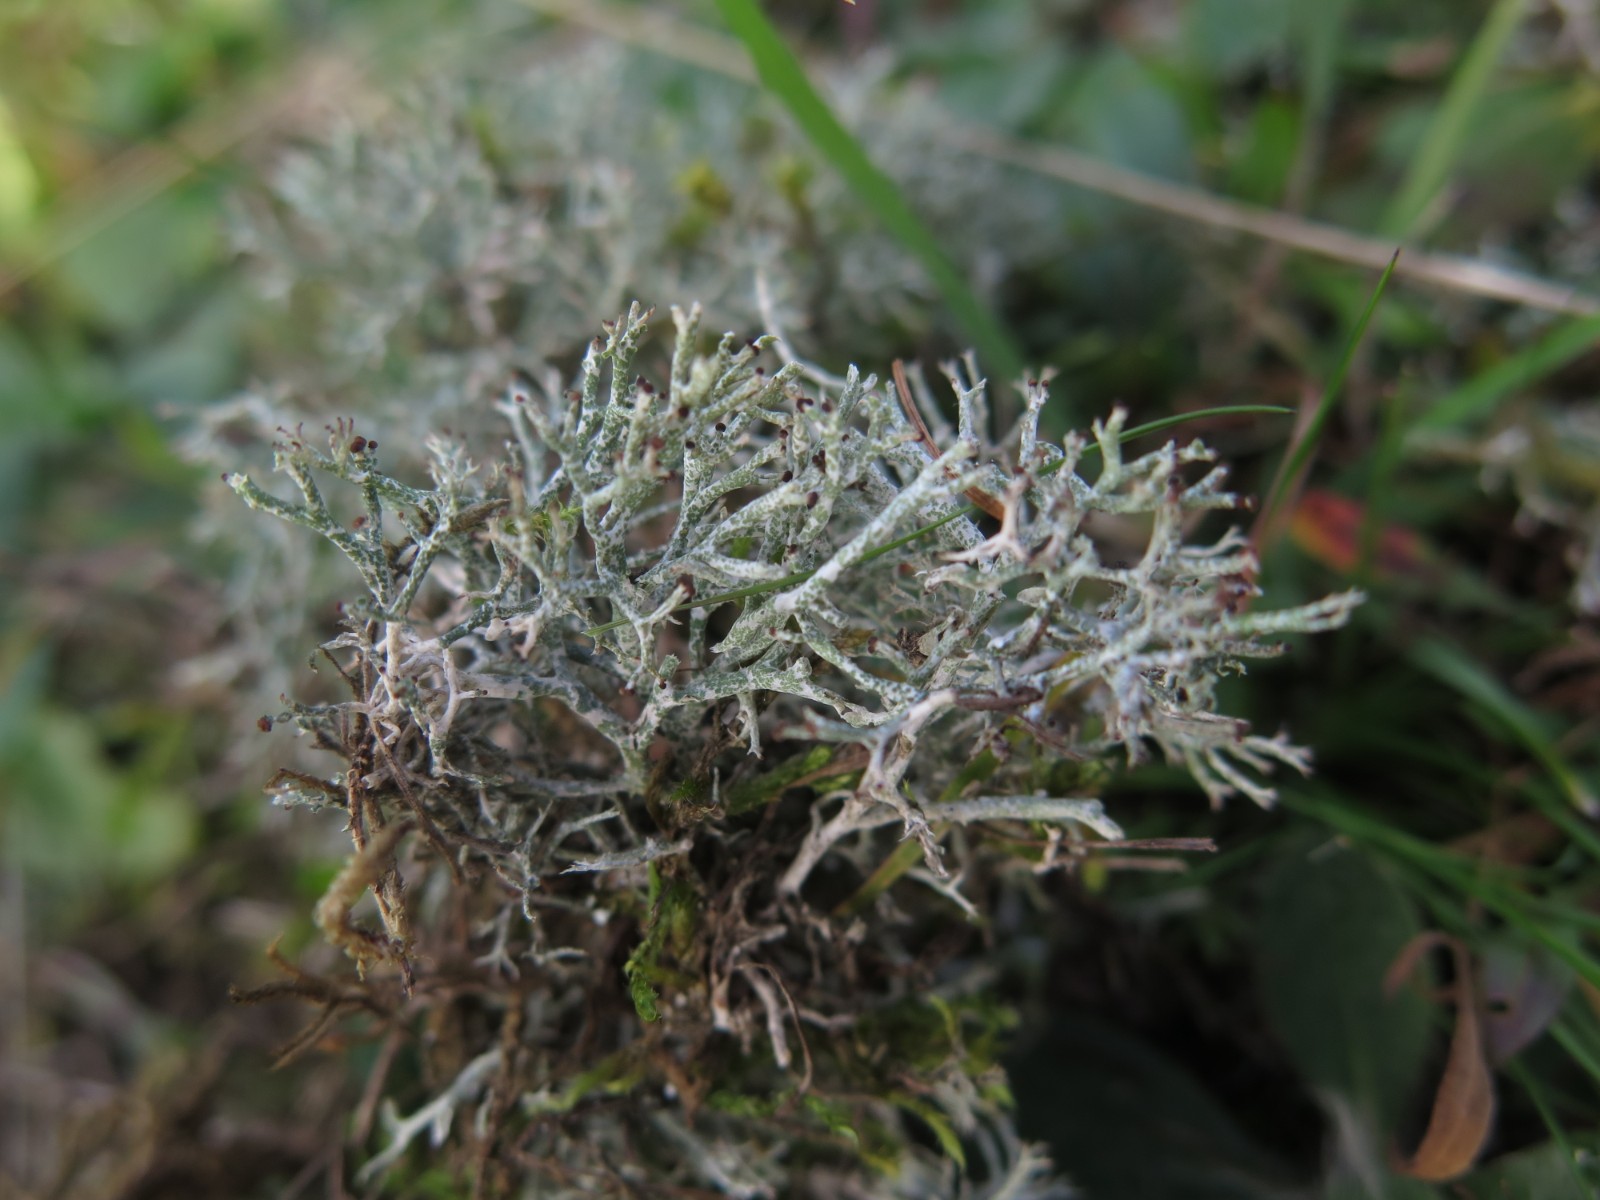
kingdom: Fungi
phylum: Ascomycota
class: Lecanoromycetes
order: Lecanorales
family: Cladoniaceae
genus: Cladonia
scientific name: Cladonia rangiformis
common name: spættet bægerlav
